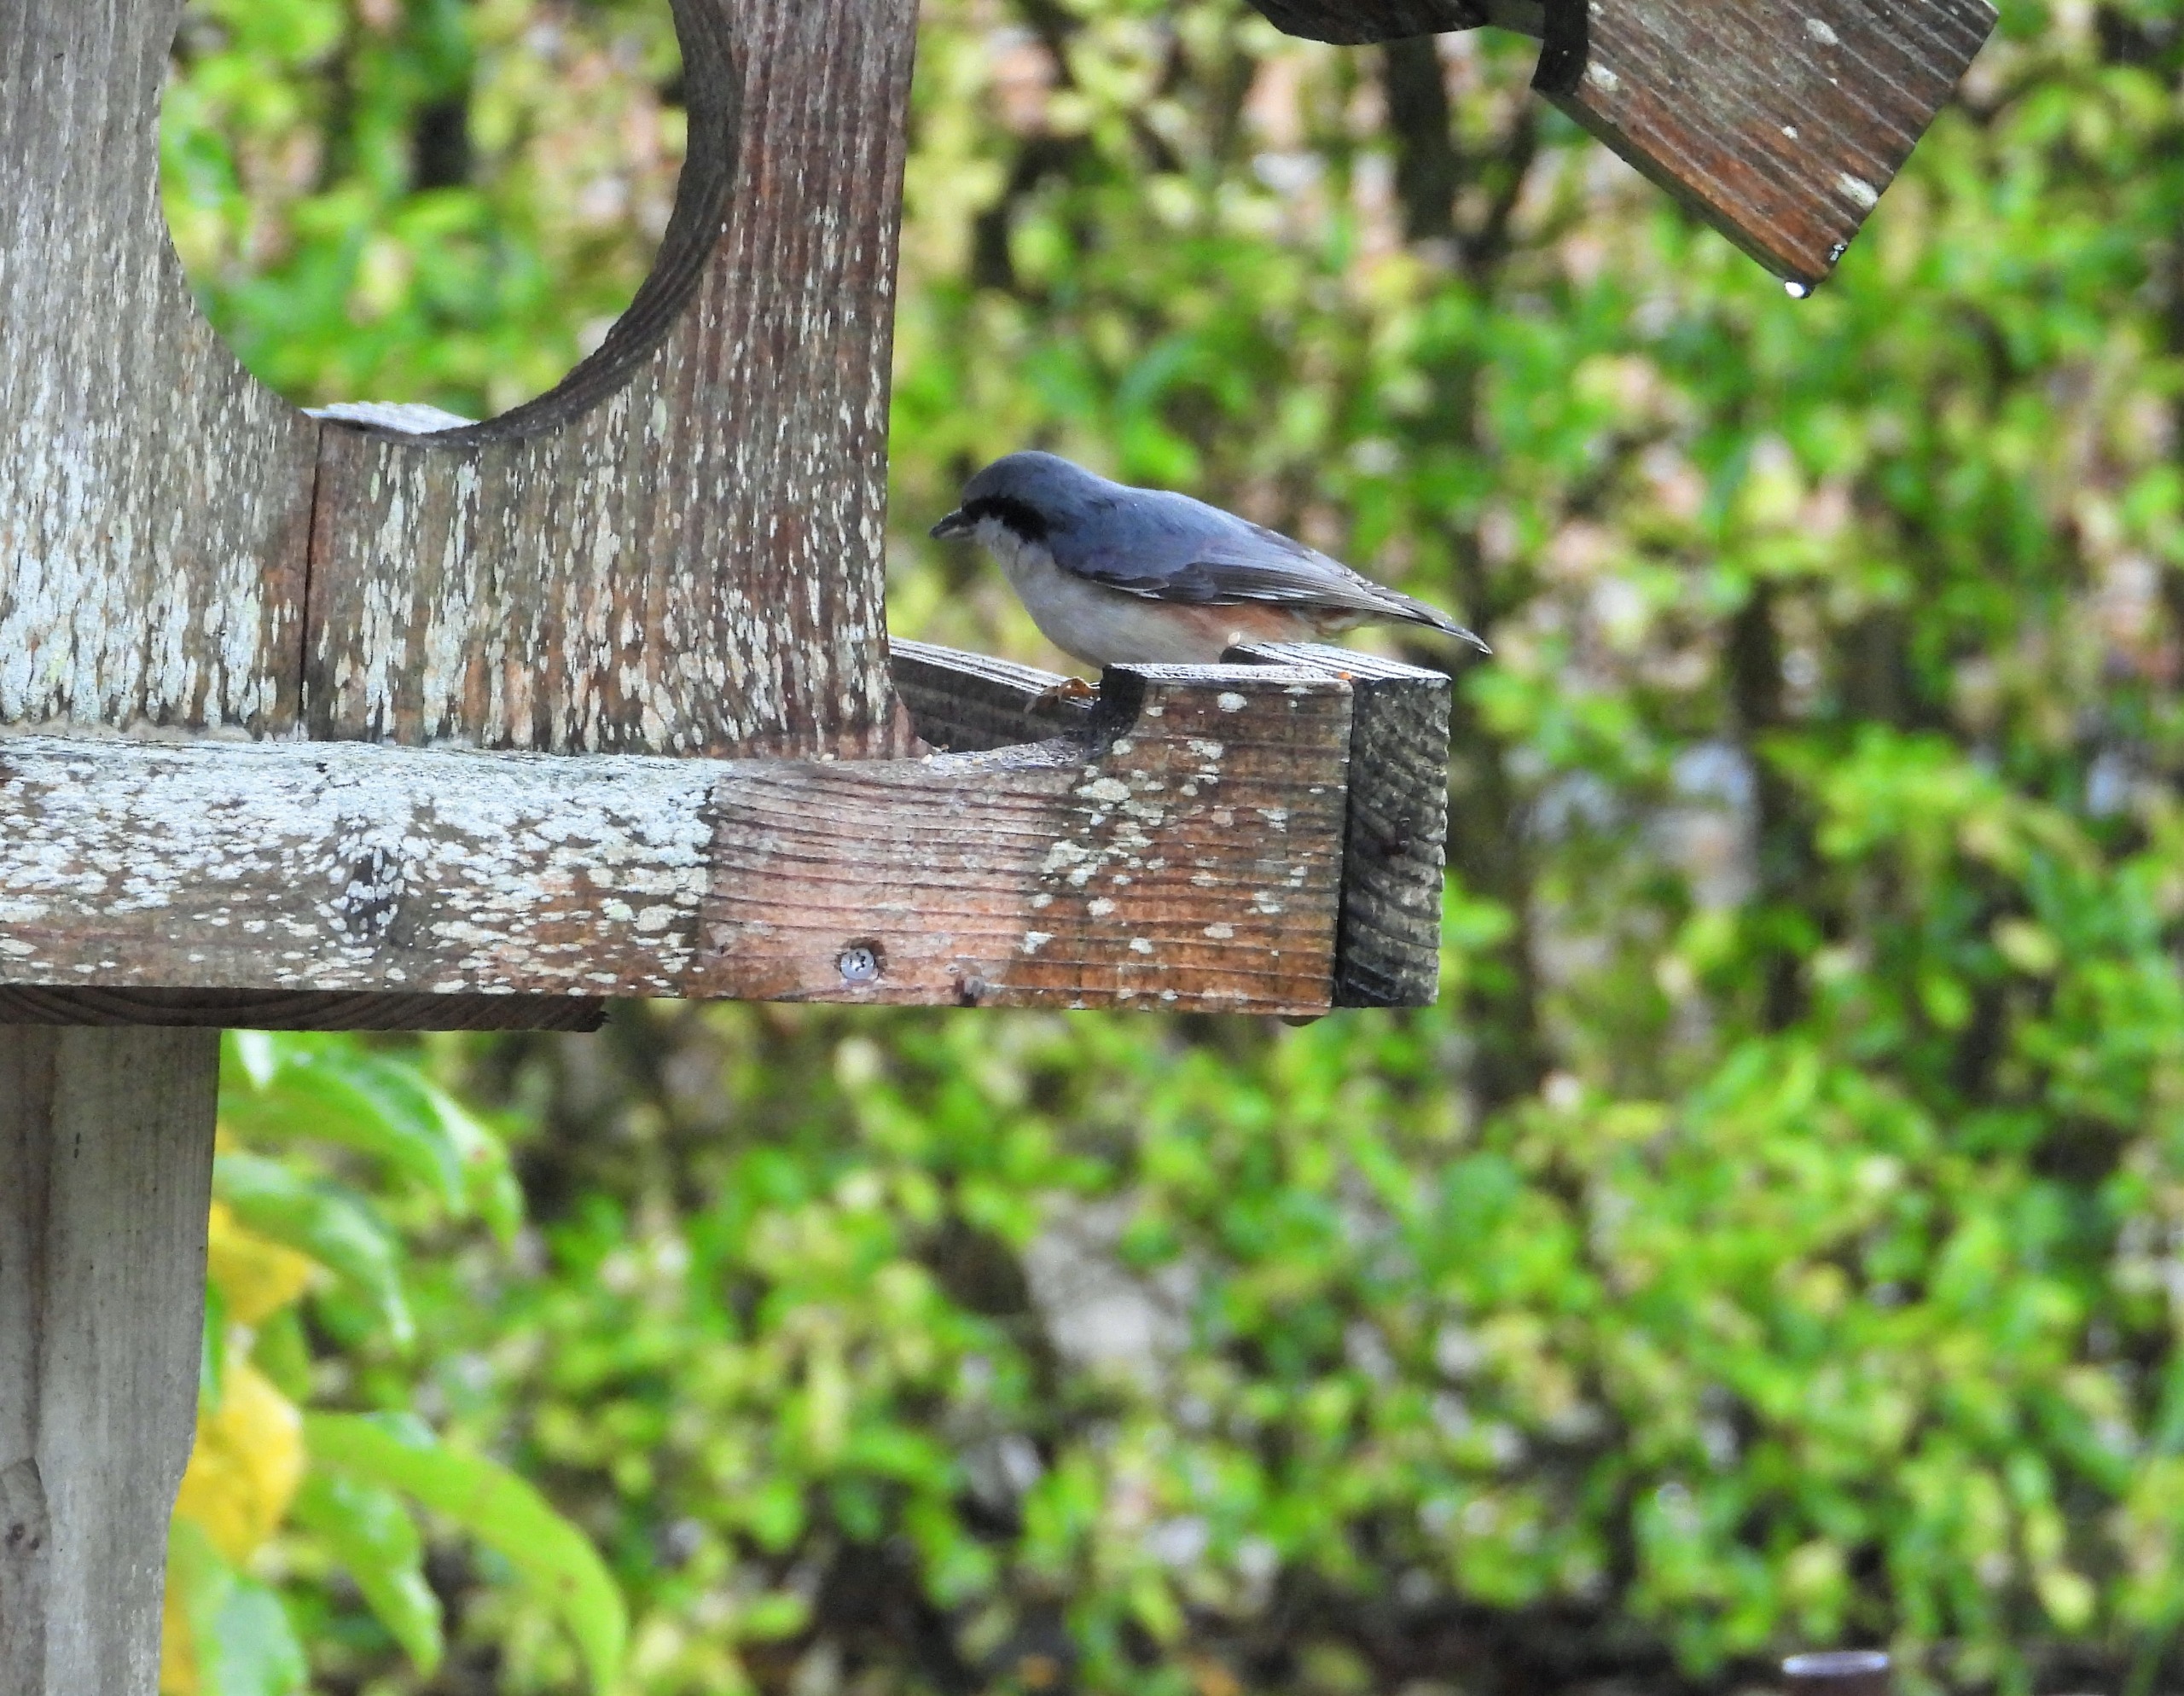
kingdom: Animalia
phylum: Chordata
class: Aves
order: Passeriformes
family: Sittidae
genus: Sitta
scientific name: Sitta europaea
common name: Spætmejse
